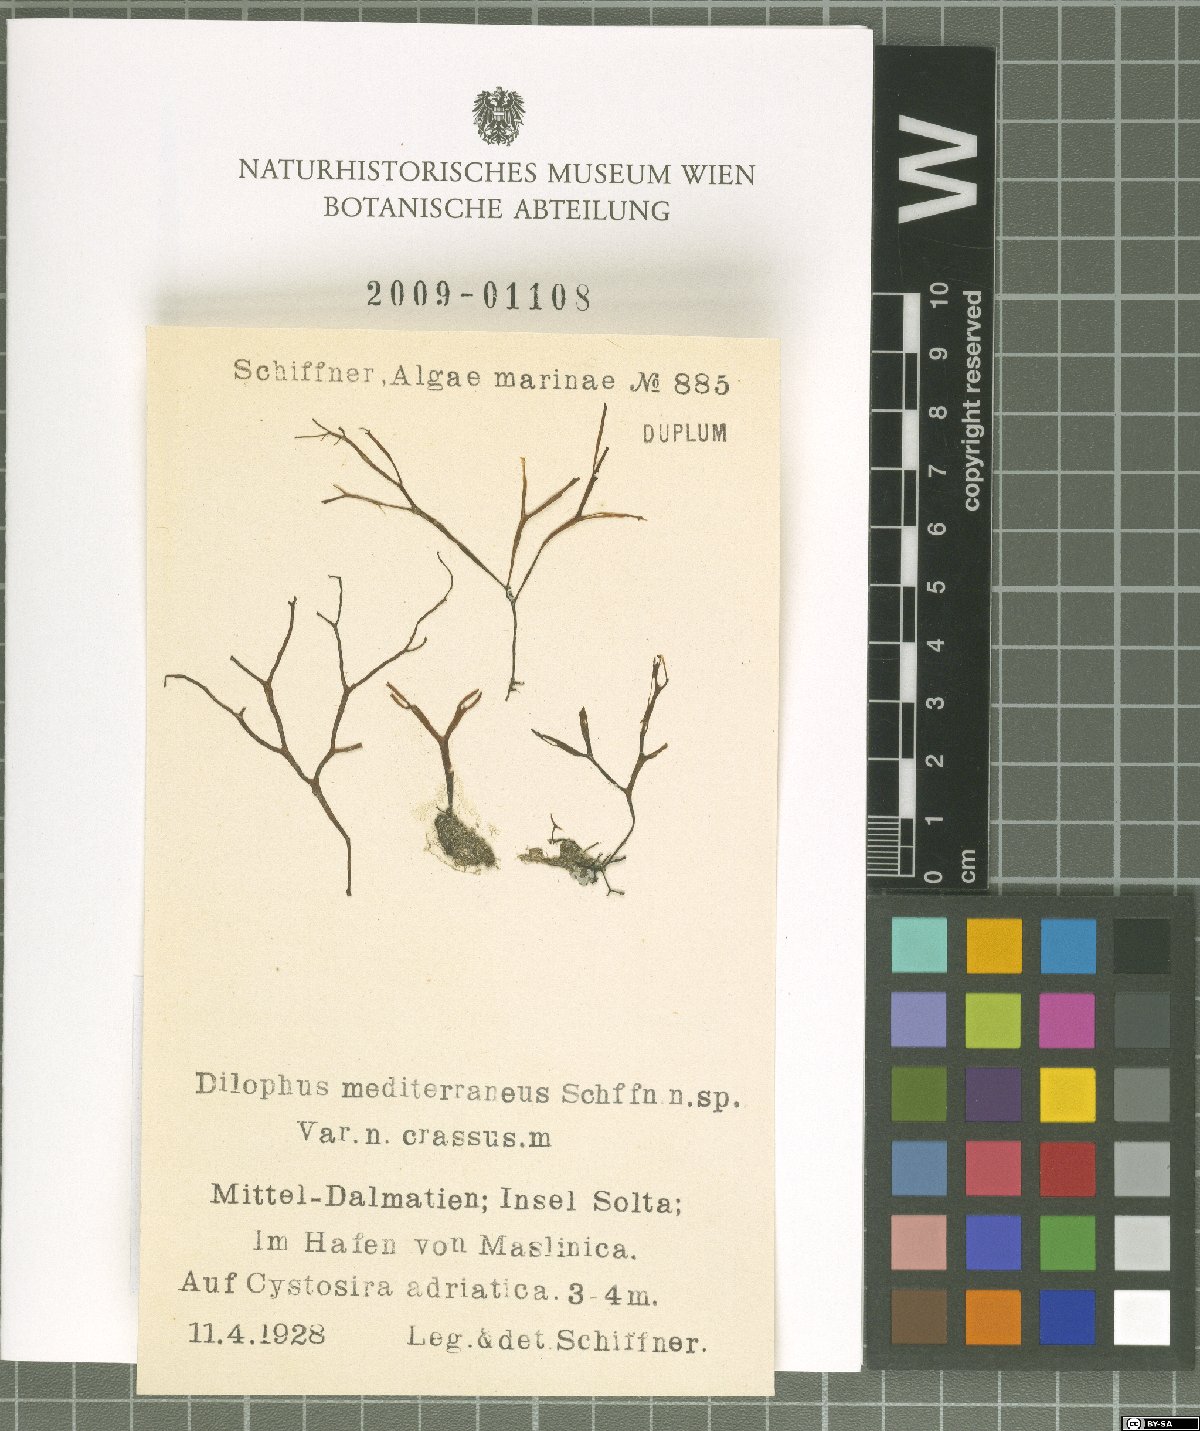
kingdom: Chromista
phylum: Ochrophyta
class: Phaeophyceae
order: Dictyotales
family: Dictyotaceae
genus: Dictyota
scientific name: Dictyota
